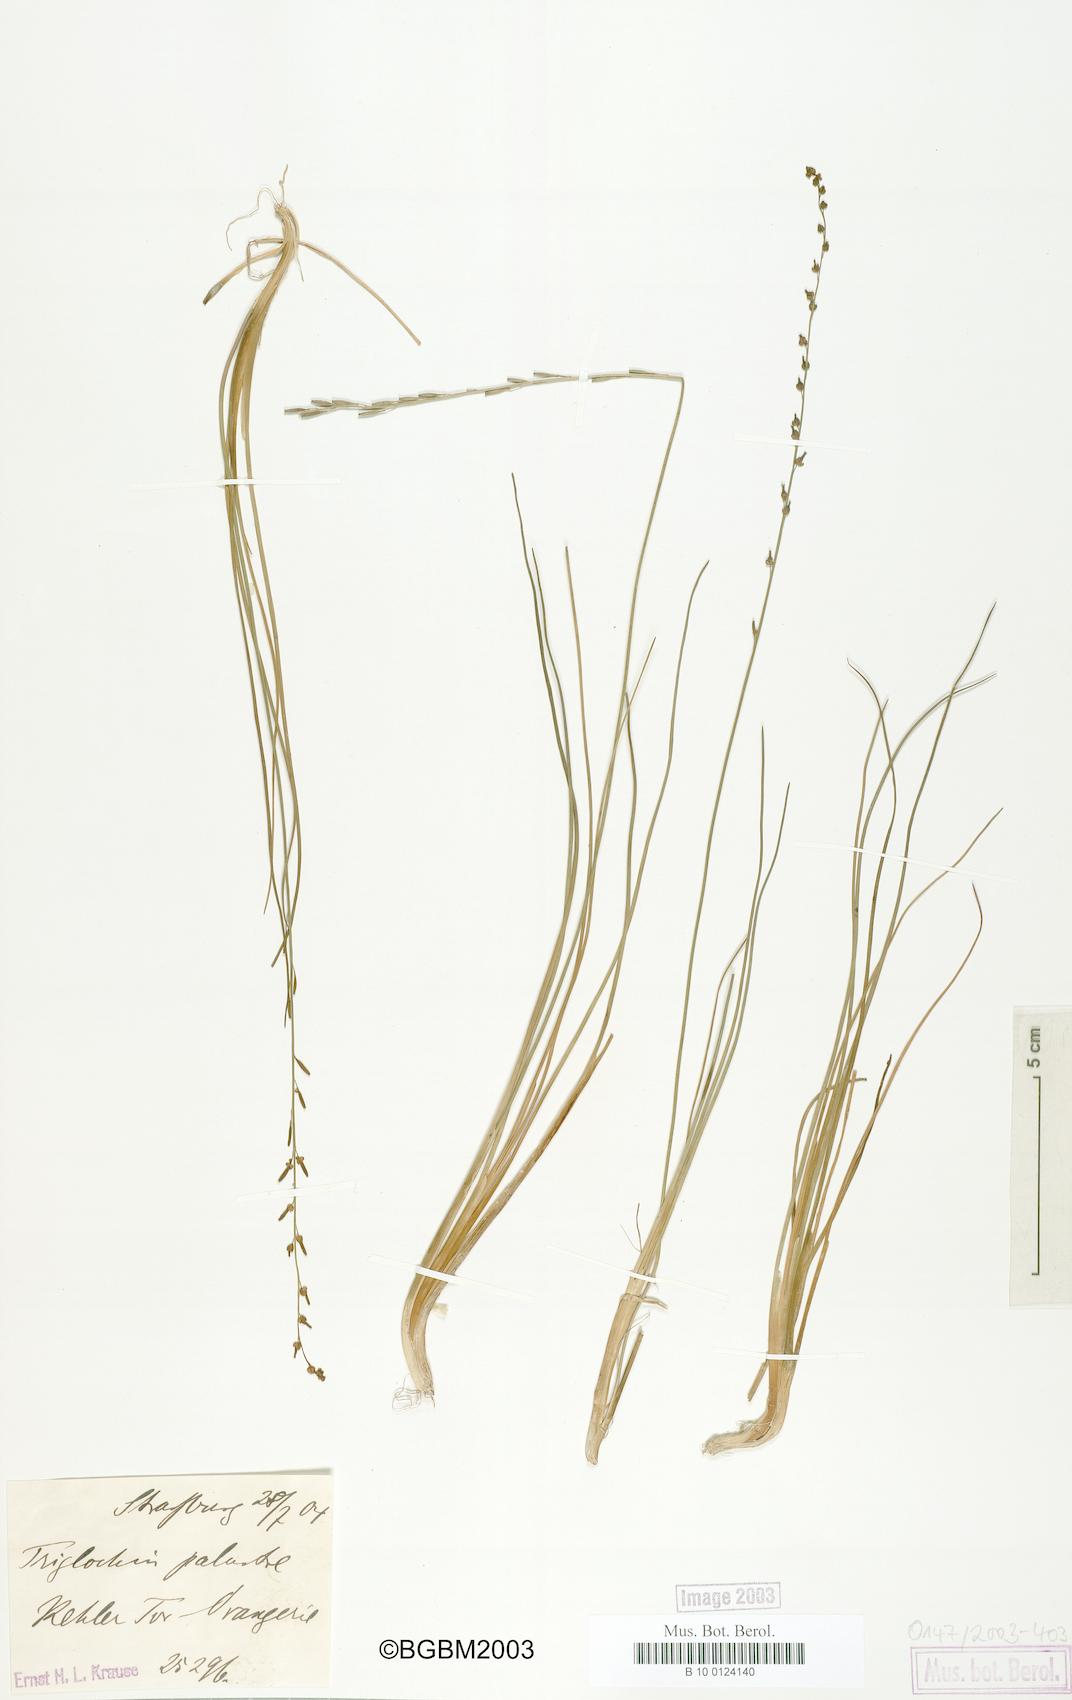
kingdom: Plantae
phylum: Tracheophyta
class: Liliopsida
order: Alismatales
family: Juncaginaceae
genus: Triglochin
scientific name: Triglochin palustris
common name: Marsh arrowgrass
